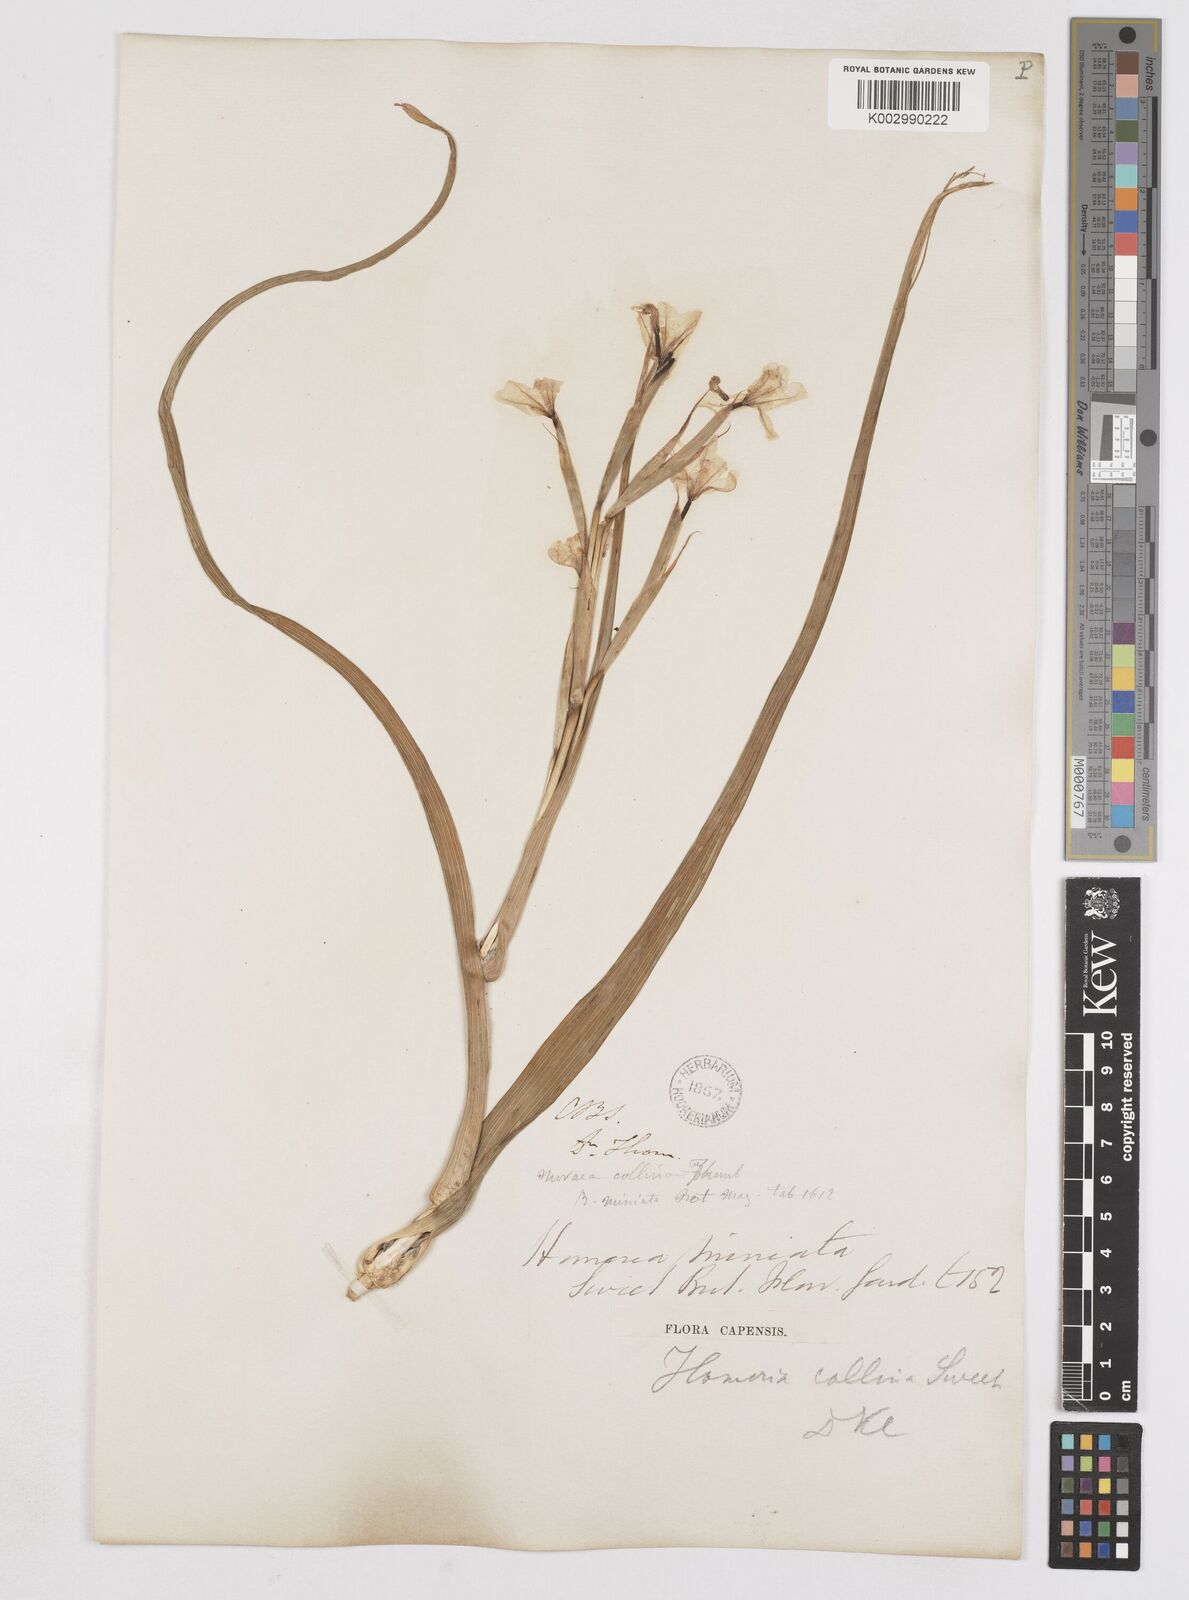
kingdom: Plantae
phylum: Tracheophyta
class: Liliopsida
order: Asparagales
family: Iridaceae
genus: Moraea
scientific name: Moraea miniata
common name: Two-leaf cape-tulip
